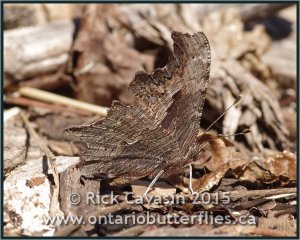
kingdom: Animalia
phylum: Arthropoda
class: Insecta
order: Lepidoptera
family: Nymphalidae
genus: Polygonia
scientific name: Polygonia progne
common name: Gray Comma
